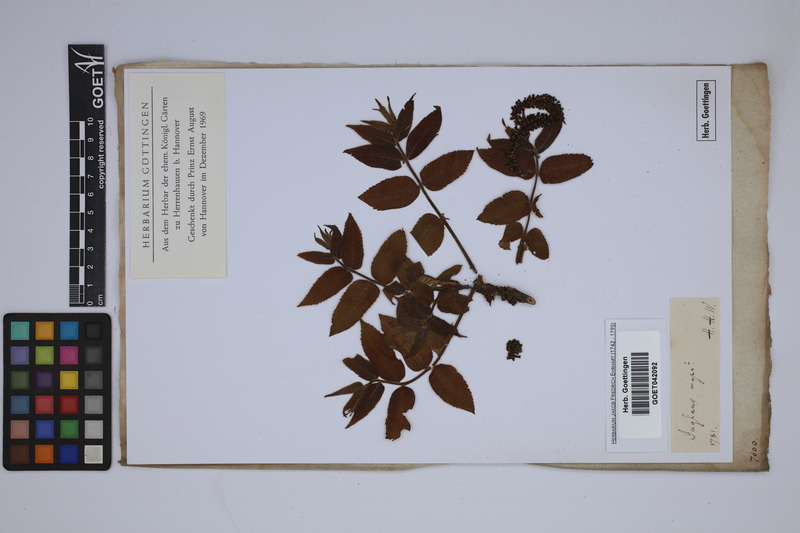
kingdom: Plantae
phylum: Tracheophyta
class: Magnoliopsida
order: Fagales
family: Juglandaceae
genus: Juglans
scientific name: Juglans nigra
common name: Black walnut
